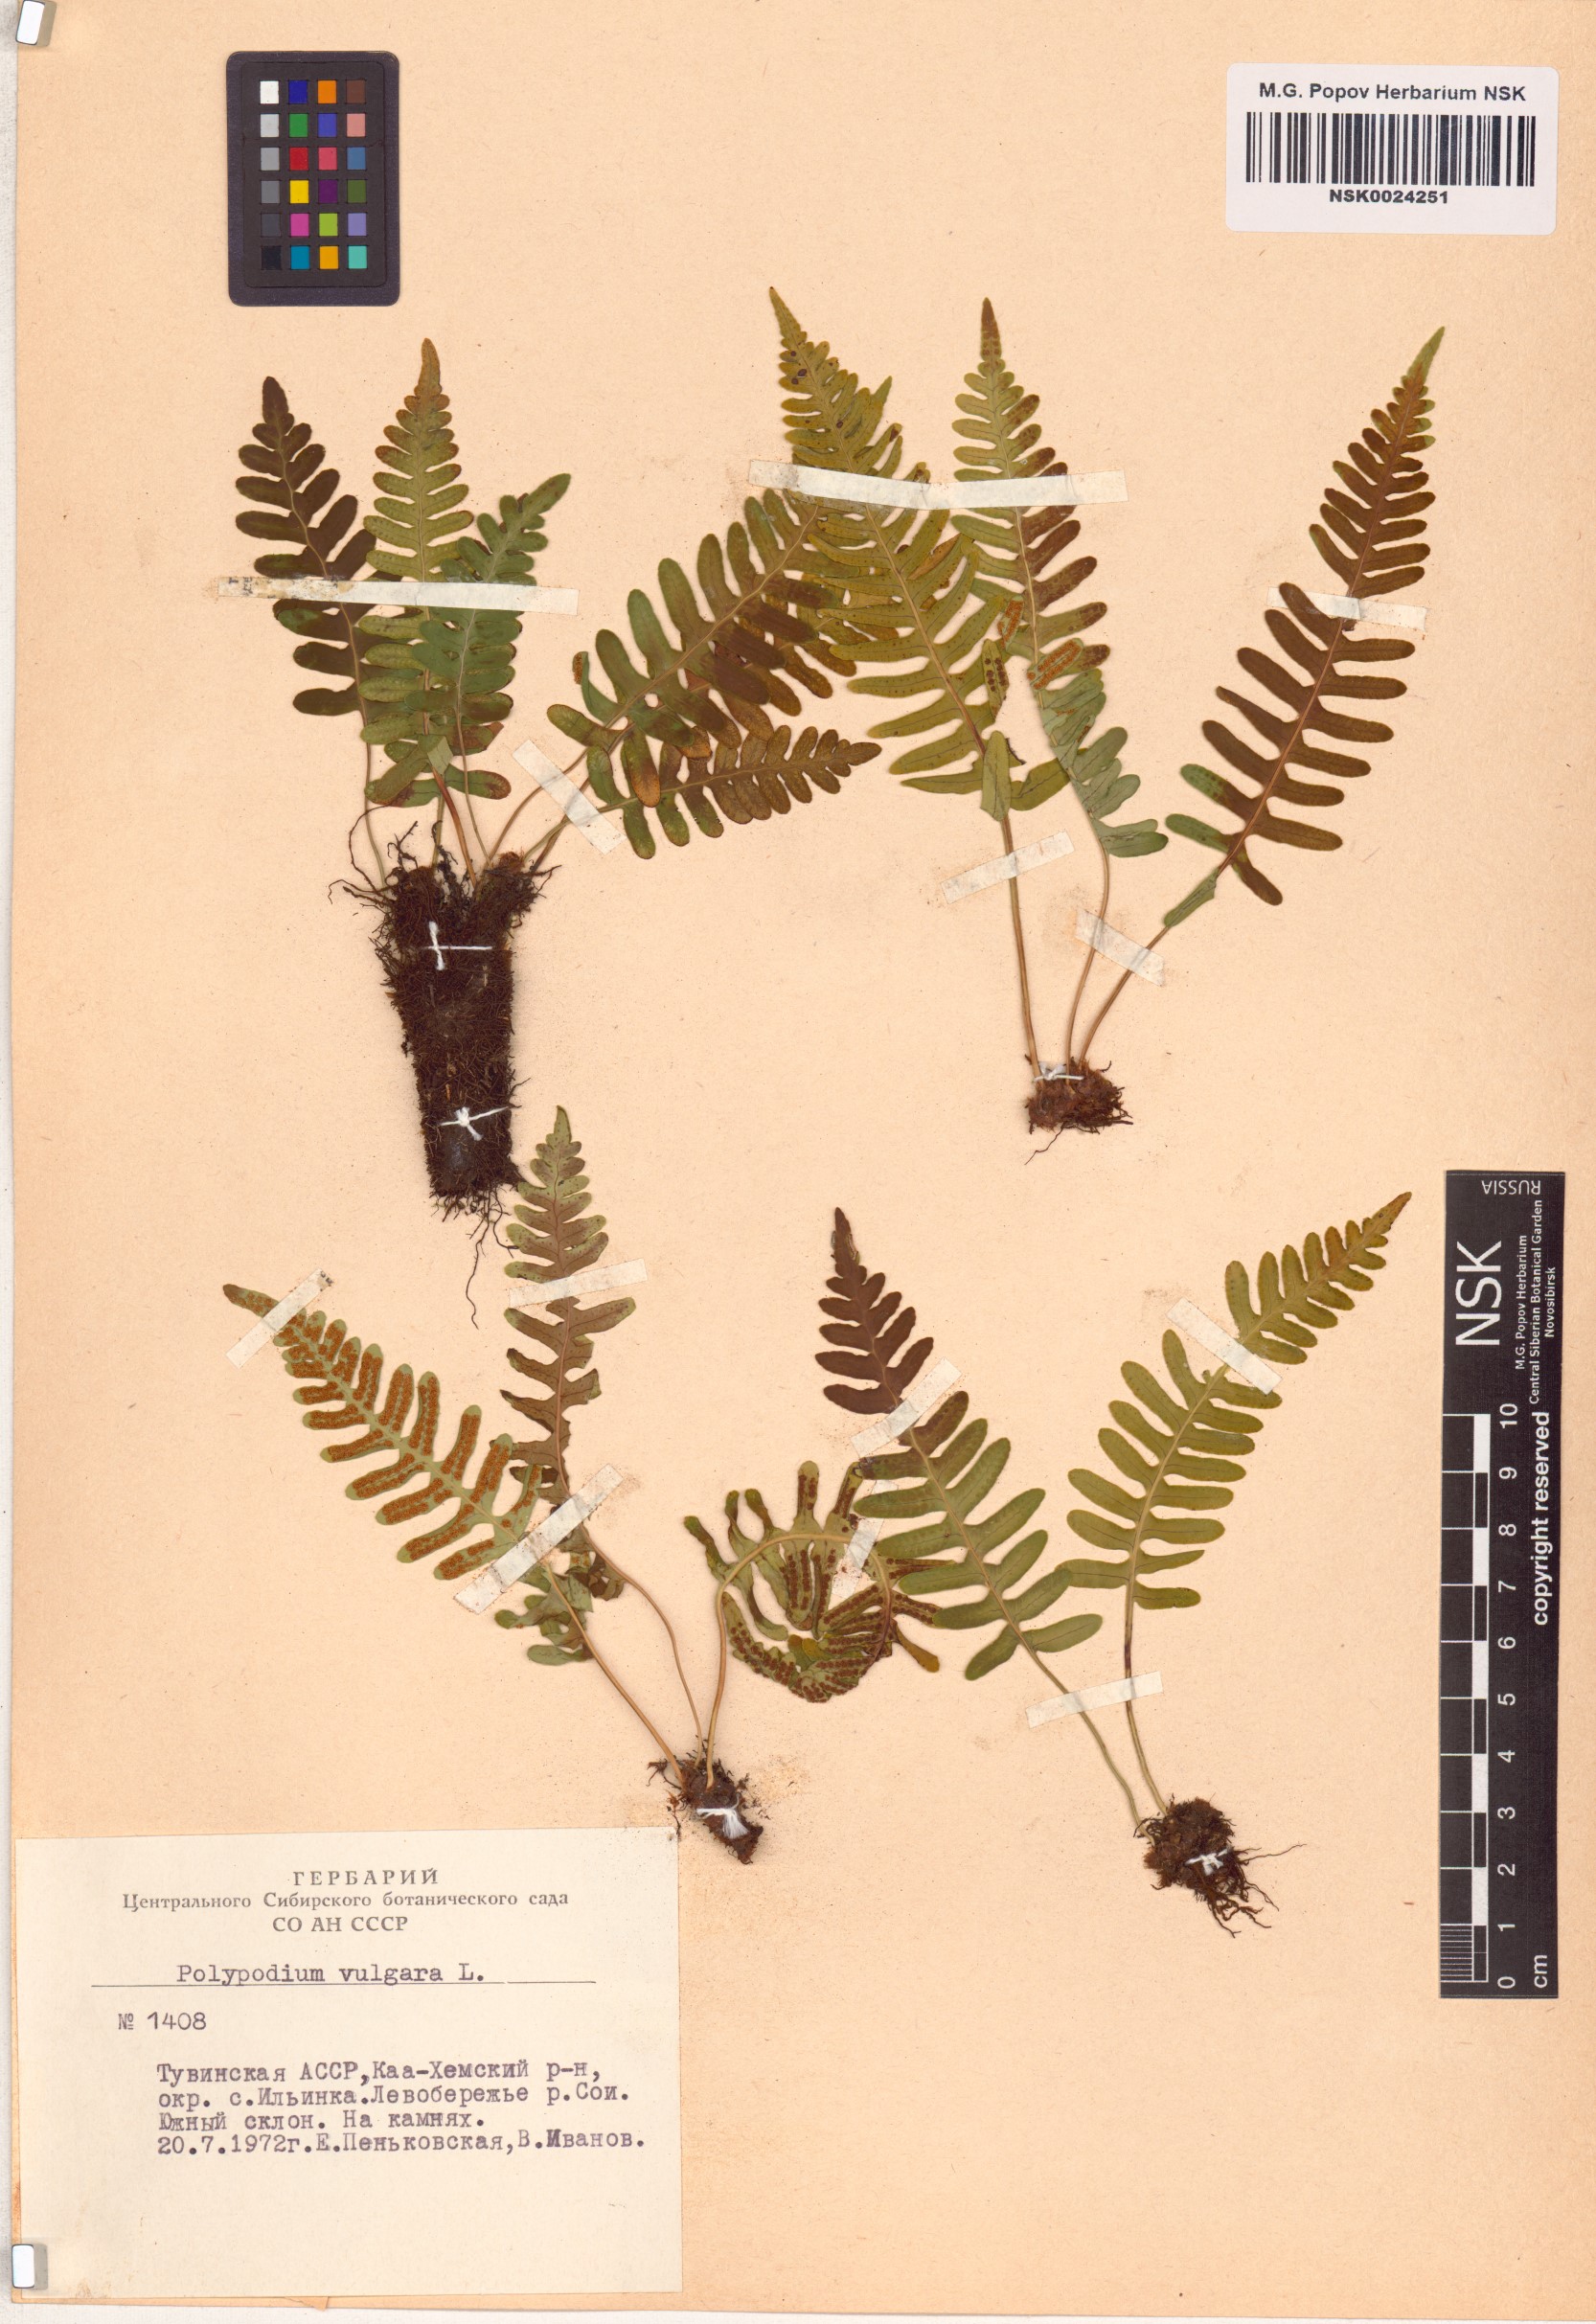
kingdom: Plantae
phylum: Tracheophyta
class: Polypodiopsida
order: Polypodiales
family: Polypodiaceae
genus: Polypodium
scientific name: Polypodium vulgare
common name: Common polypody
